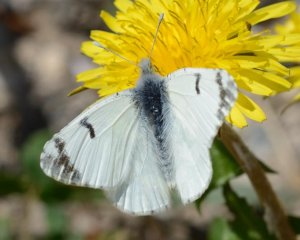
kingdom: Animalia
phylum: Arthropoda
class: Insecta
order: Lepidoptera
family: Pieridae
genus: Euchloe
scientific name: Euchloe ausonides
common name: Large Marble
